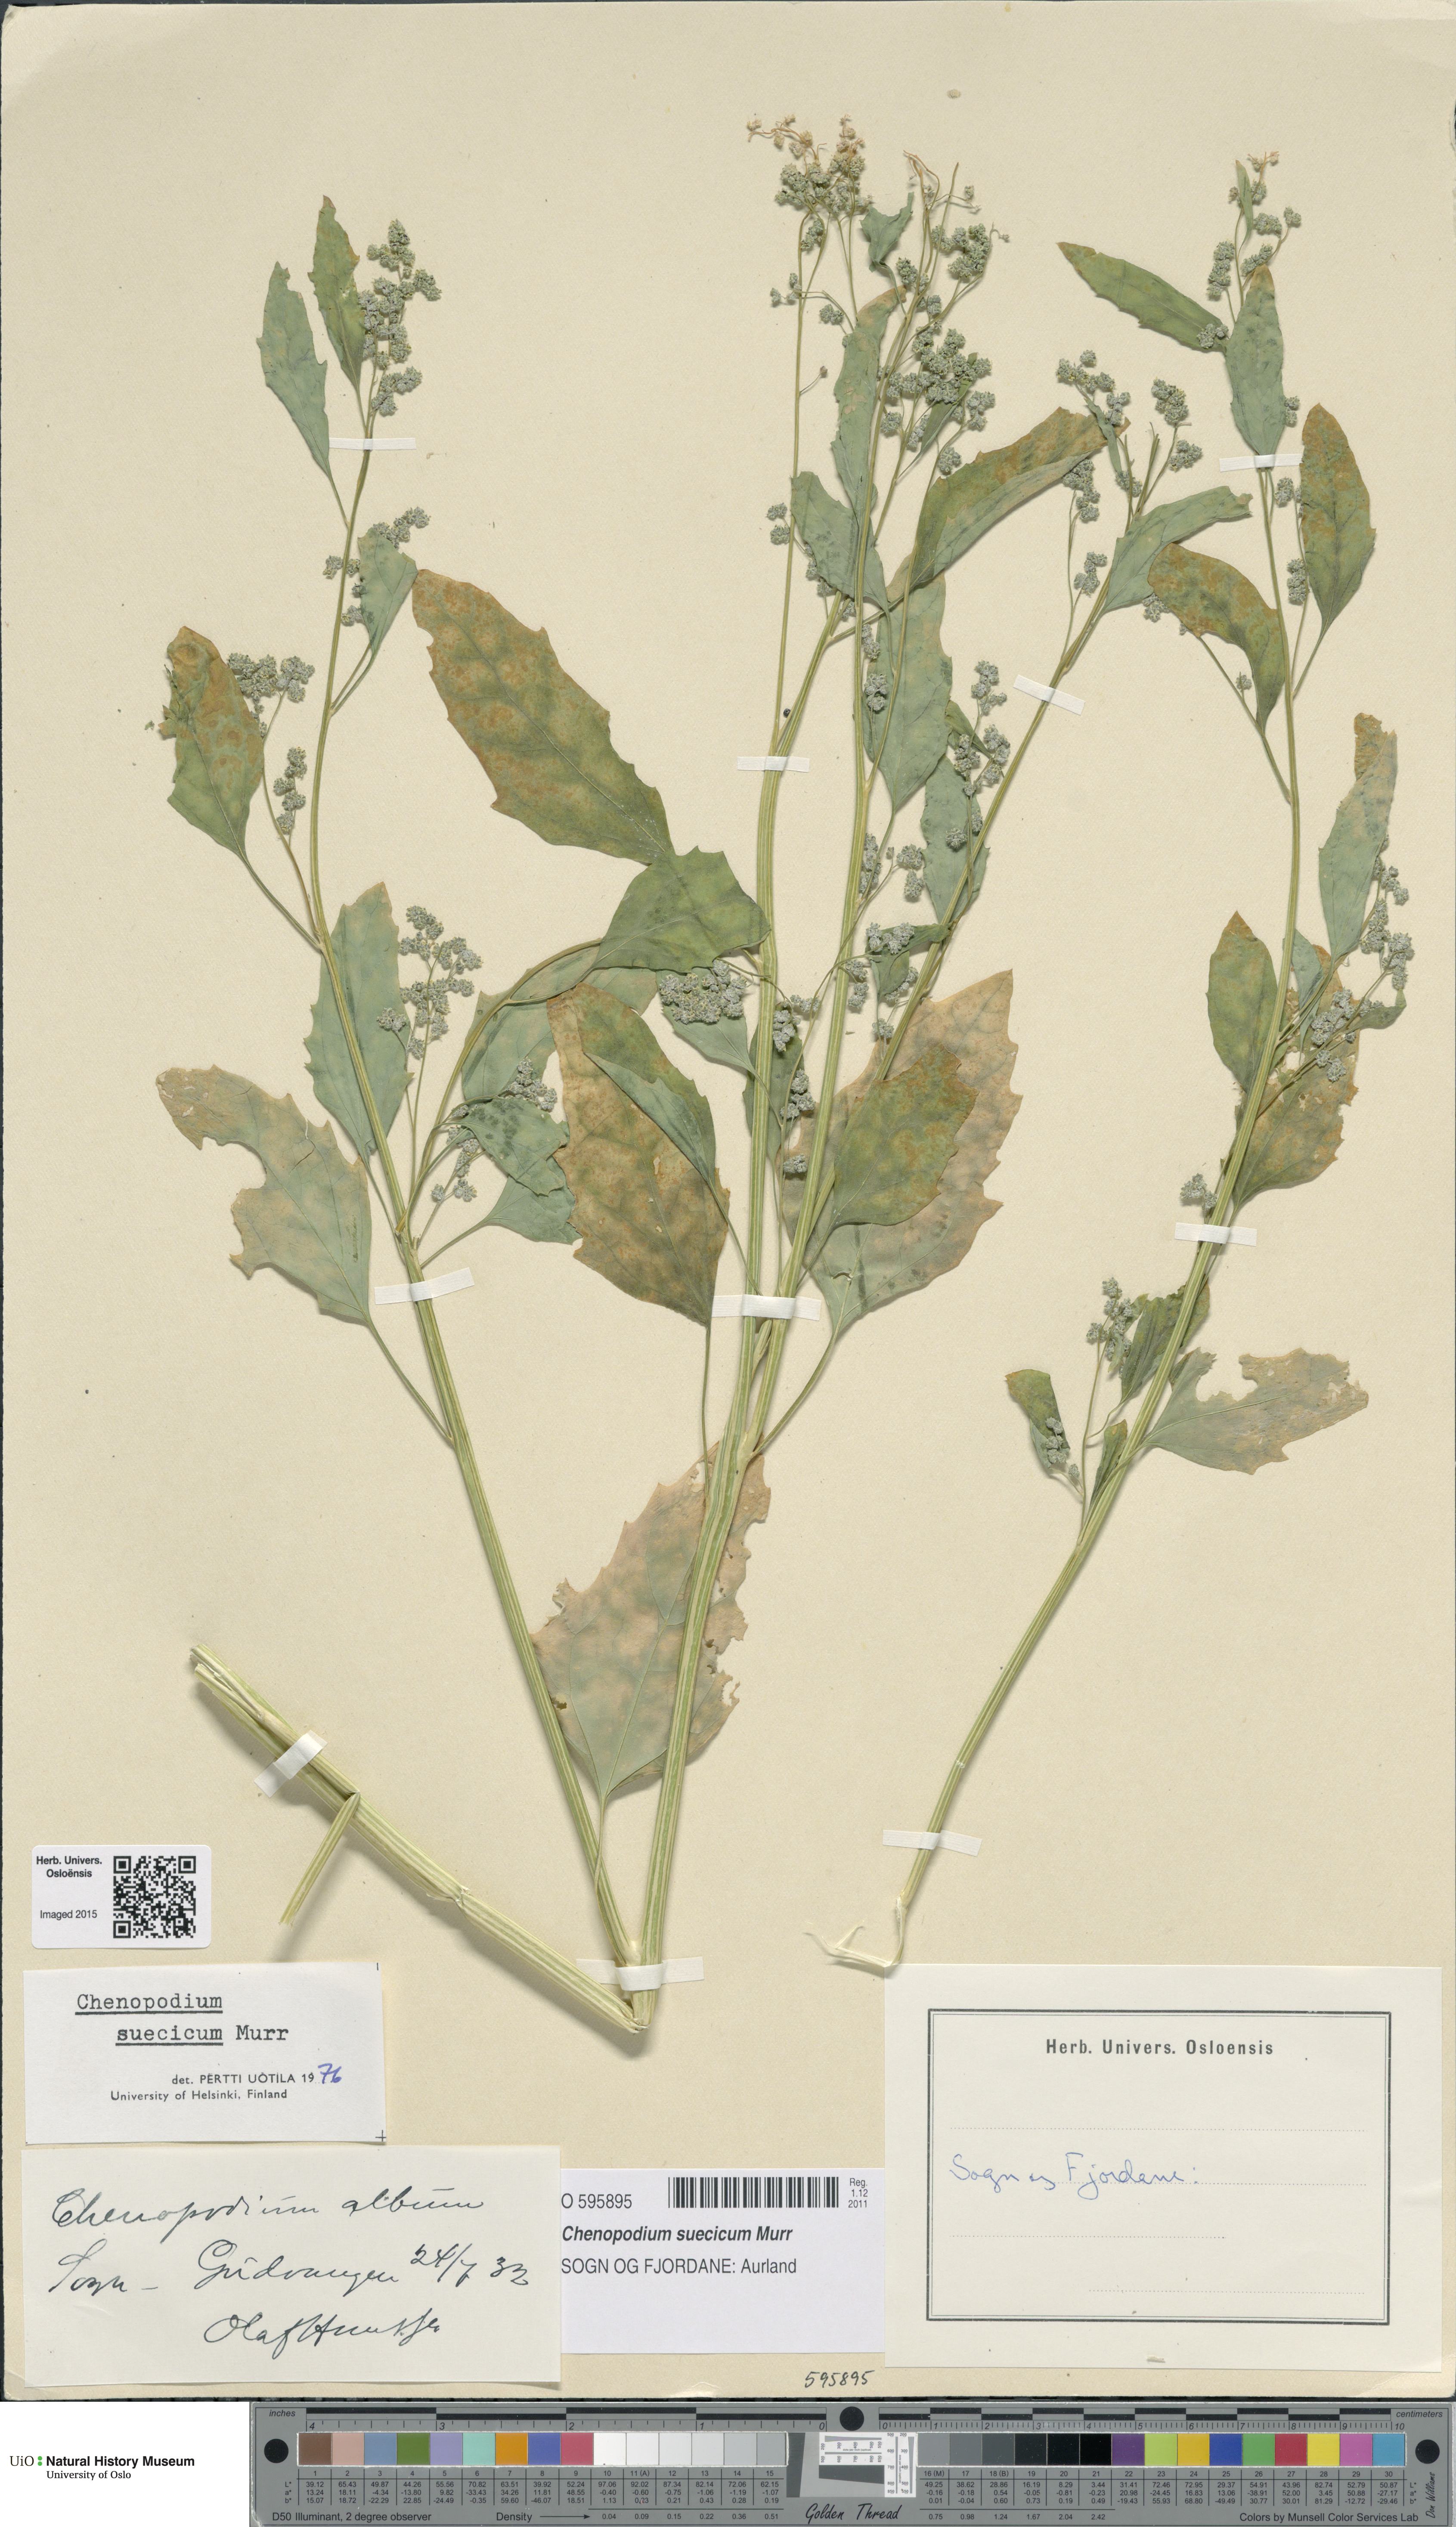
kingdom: Plantae
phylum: Tracheophyta
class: Magnoliopsida
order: Caryophyllales
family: Amaranthaceae
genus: Chenopodium
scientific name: Chenopodium suecicum
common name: Swedish goosefoot
